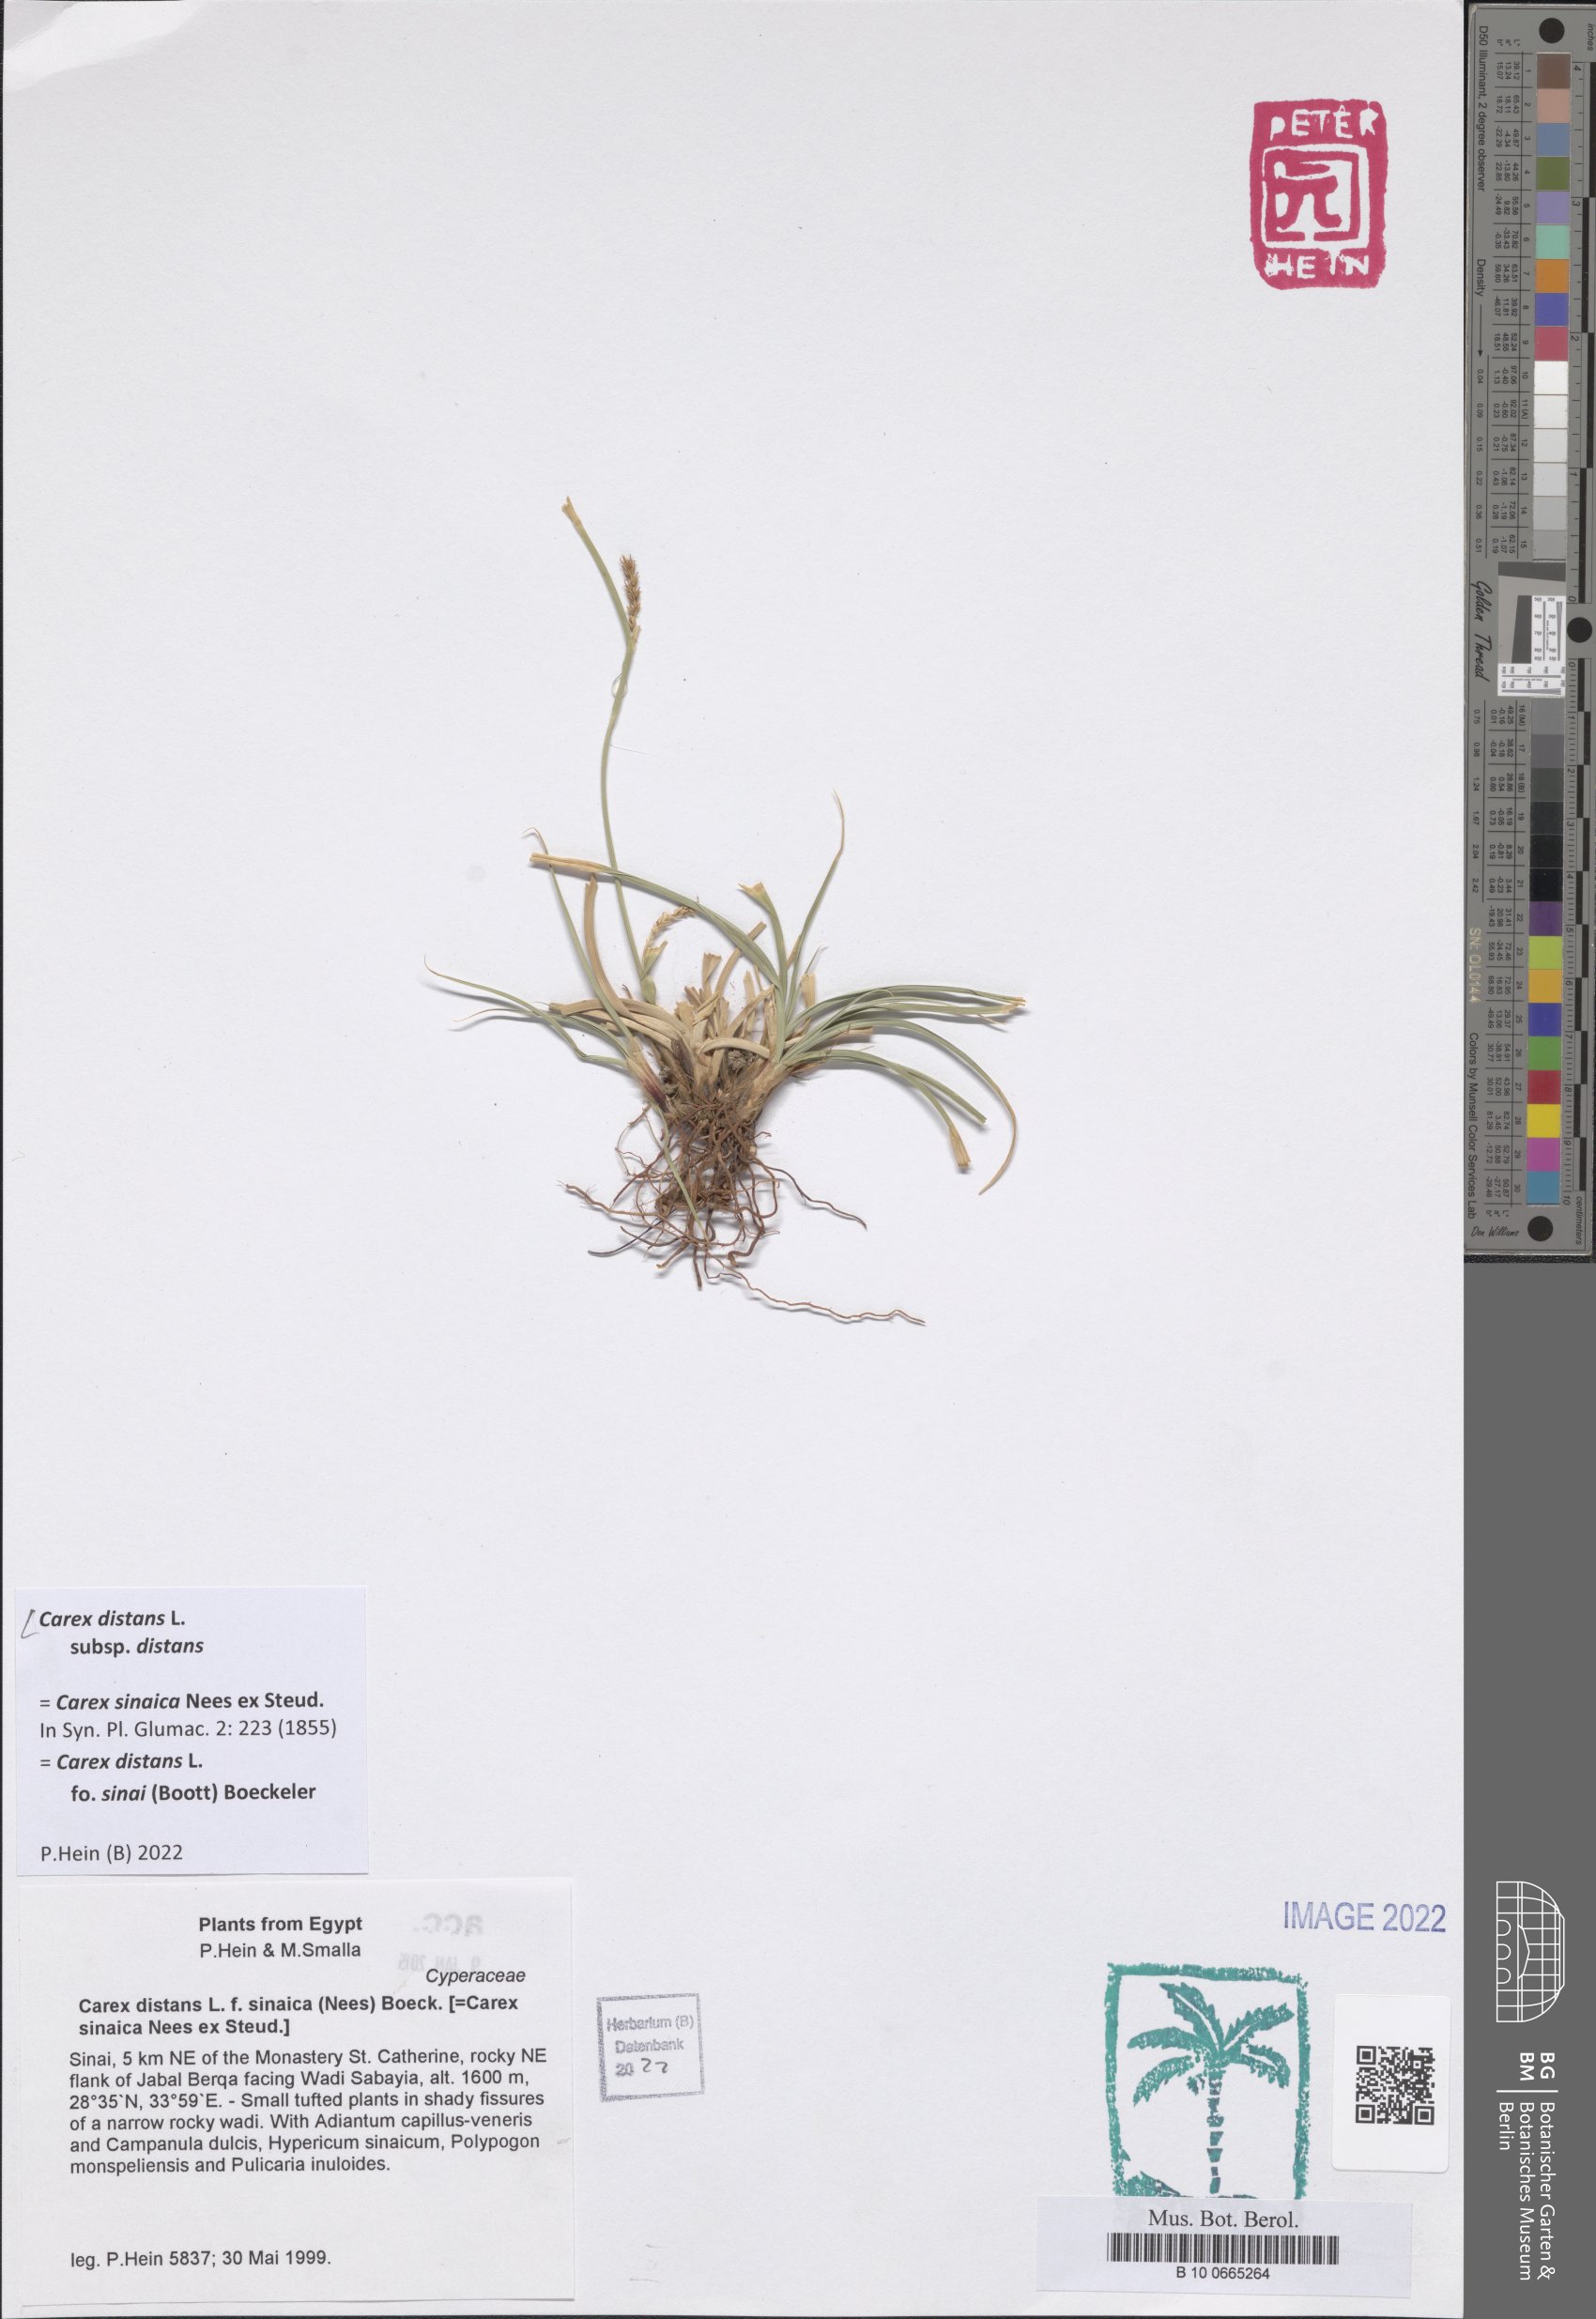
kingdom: Plantae
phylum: Tracheophyta
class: Liliopsida
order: Poales
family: Cyperaceae
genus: Carex
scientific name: Carex distans
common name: Distant sedge
